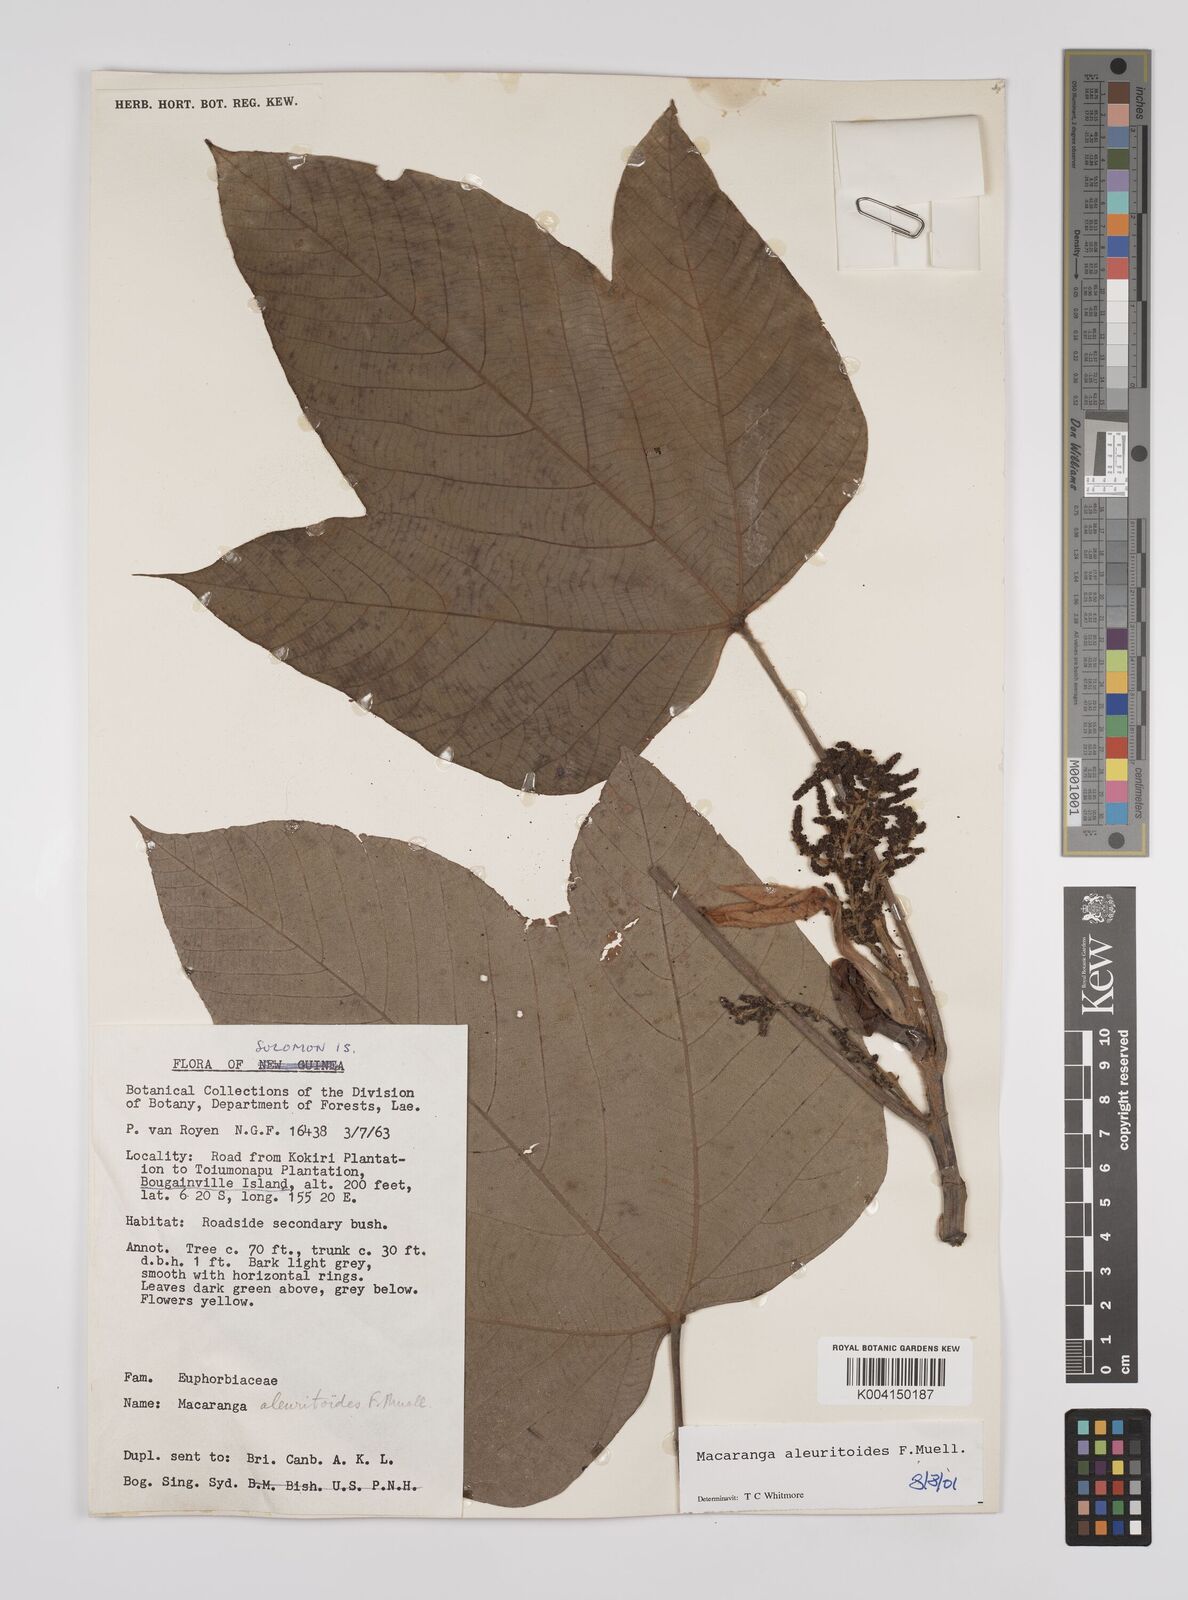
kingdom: Plantae
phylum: Tracheophyta
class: Magnoliopsida
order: Malpighiales
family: Euphorbiaceae
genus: Macaranga
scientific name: Macaranga aleuritoides
